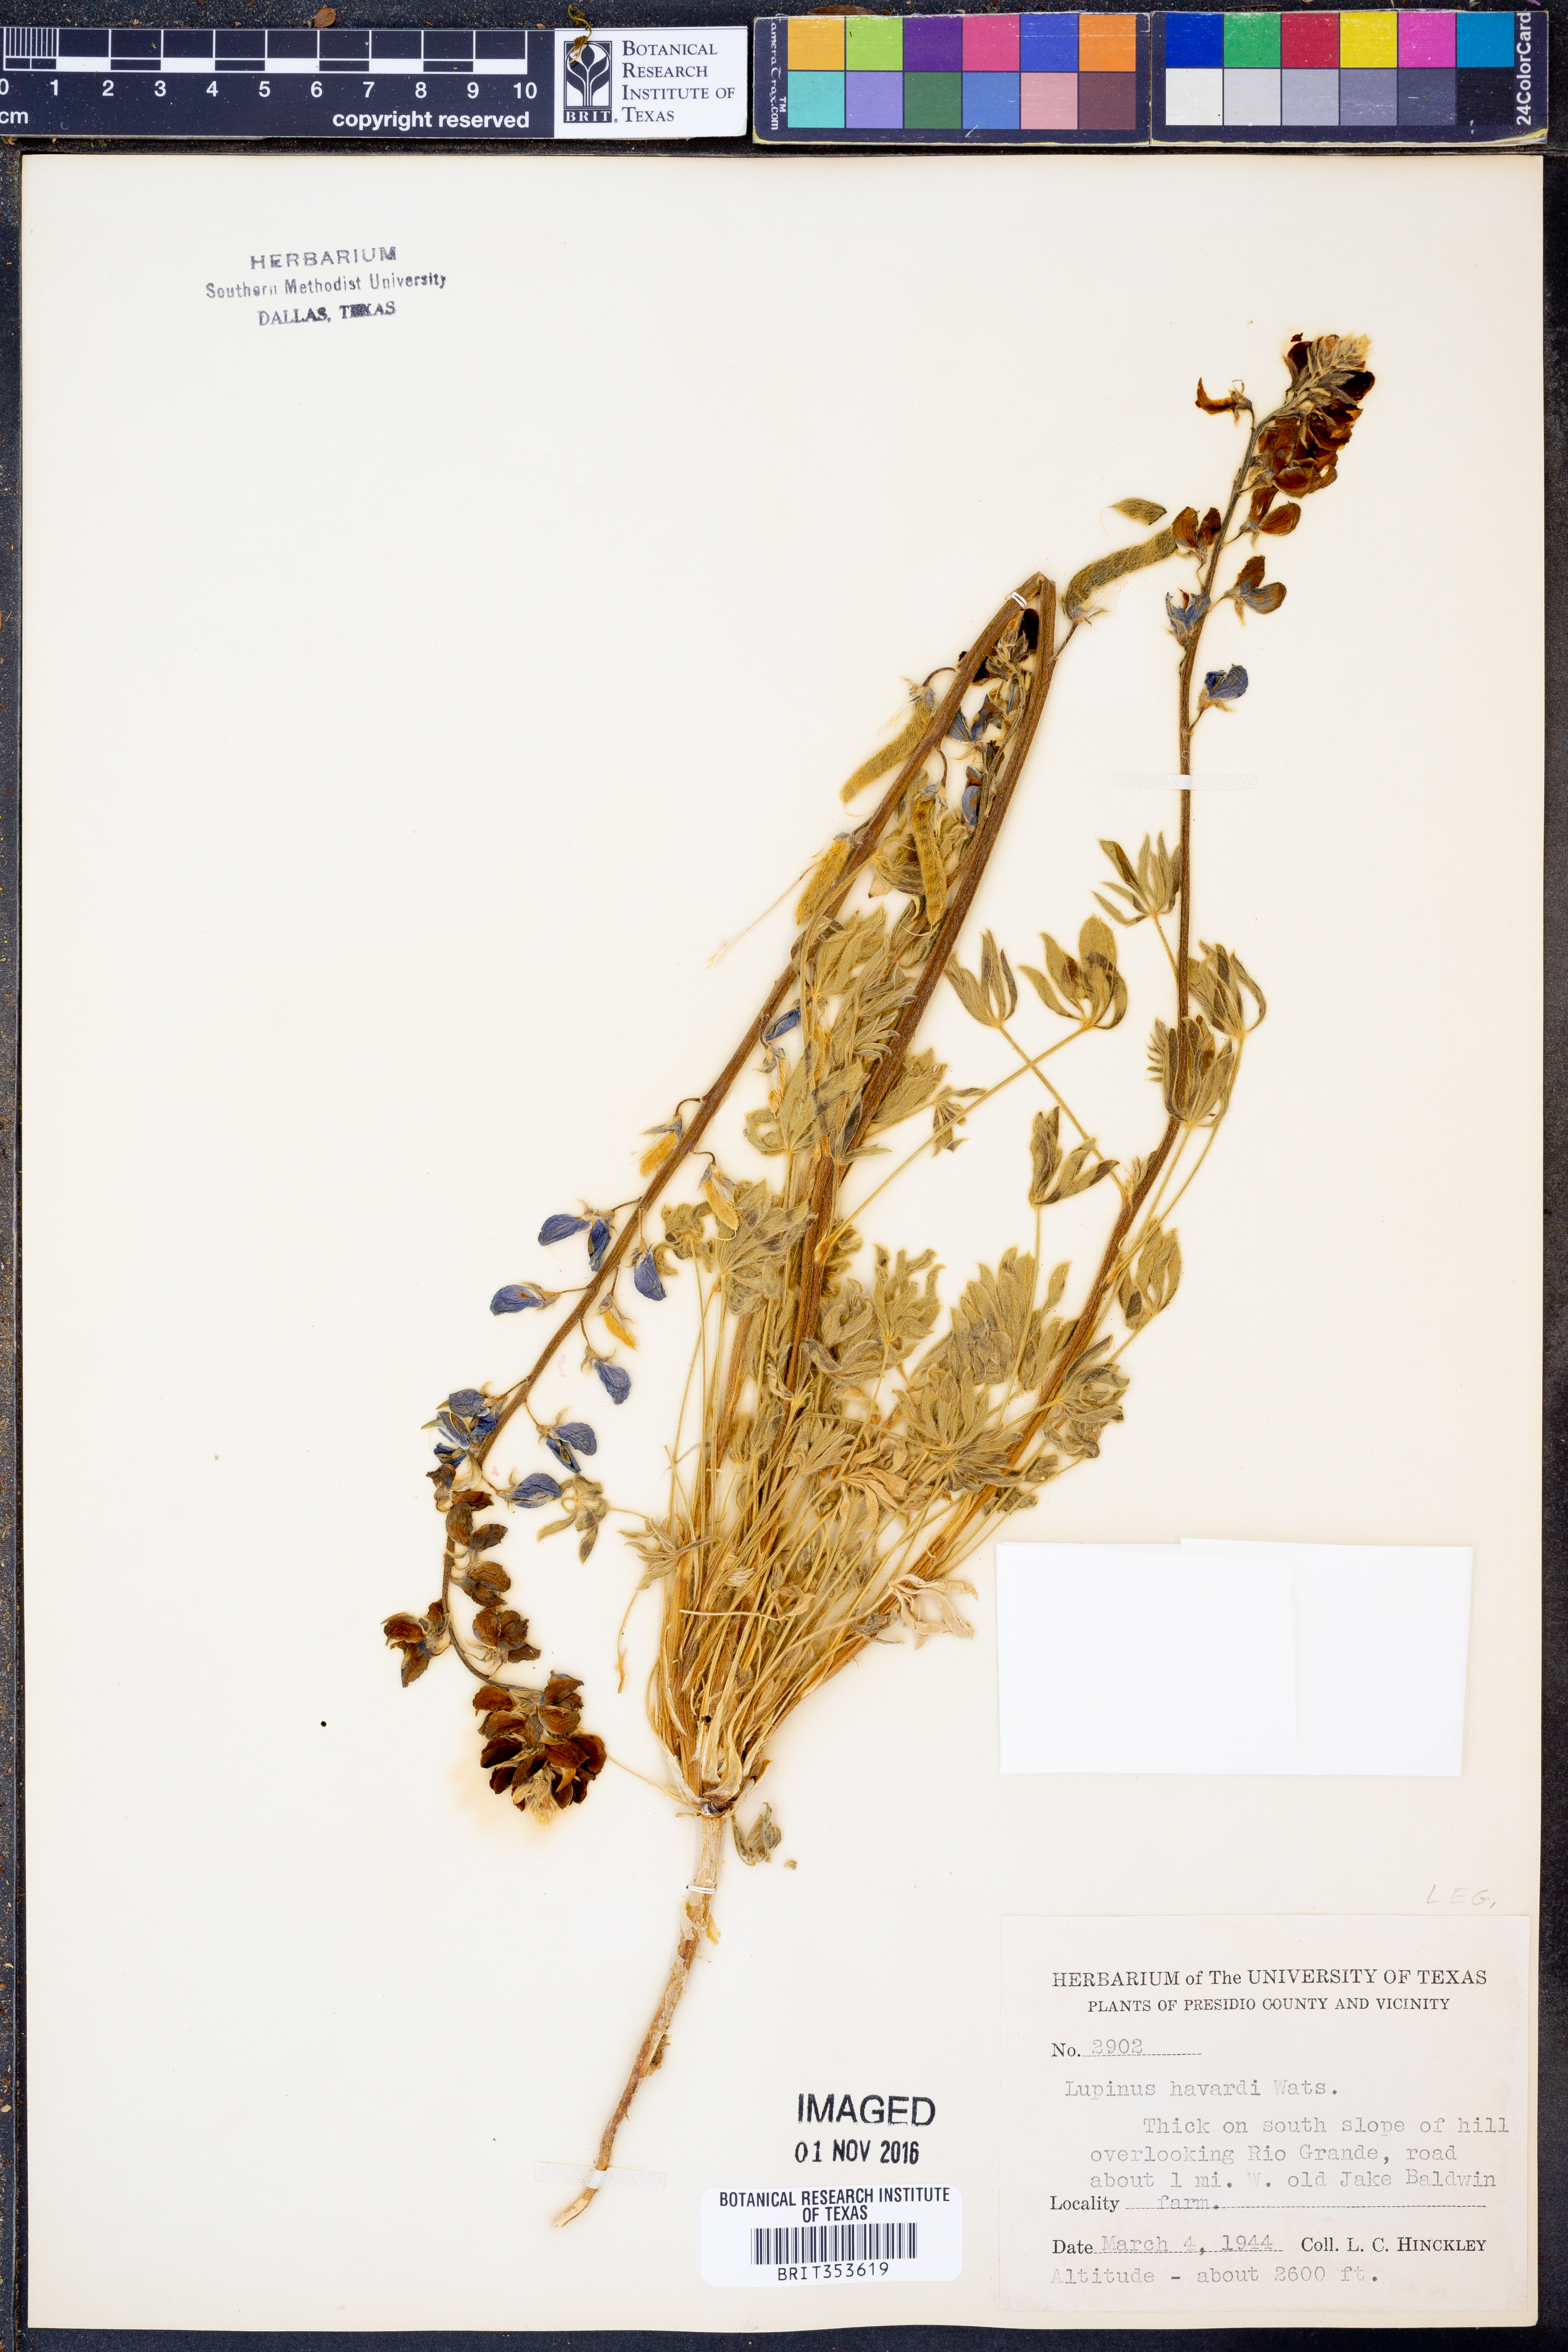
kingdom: Plantae
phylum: Tracheophyta
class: Magnoliopsida
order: Fabales
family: Fabaceae
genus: Lupinus
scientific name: Lupinus havardii
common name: Chisos bluebonnet
